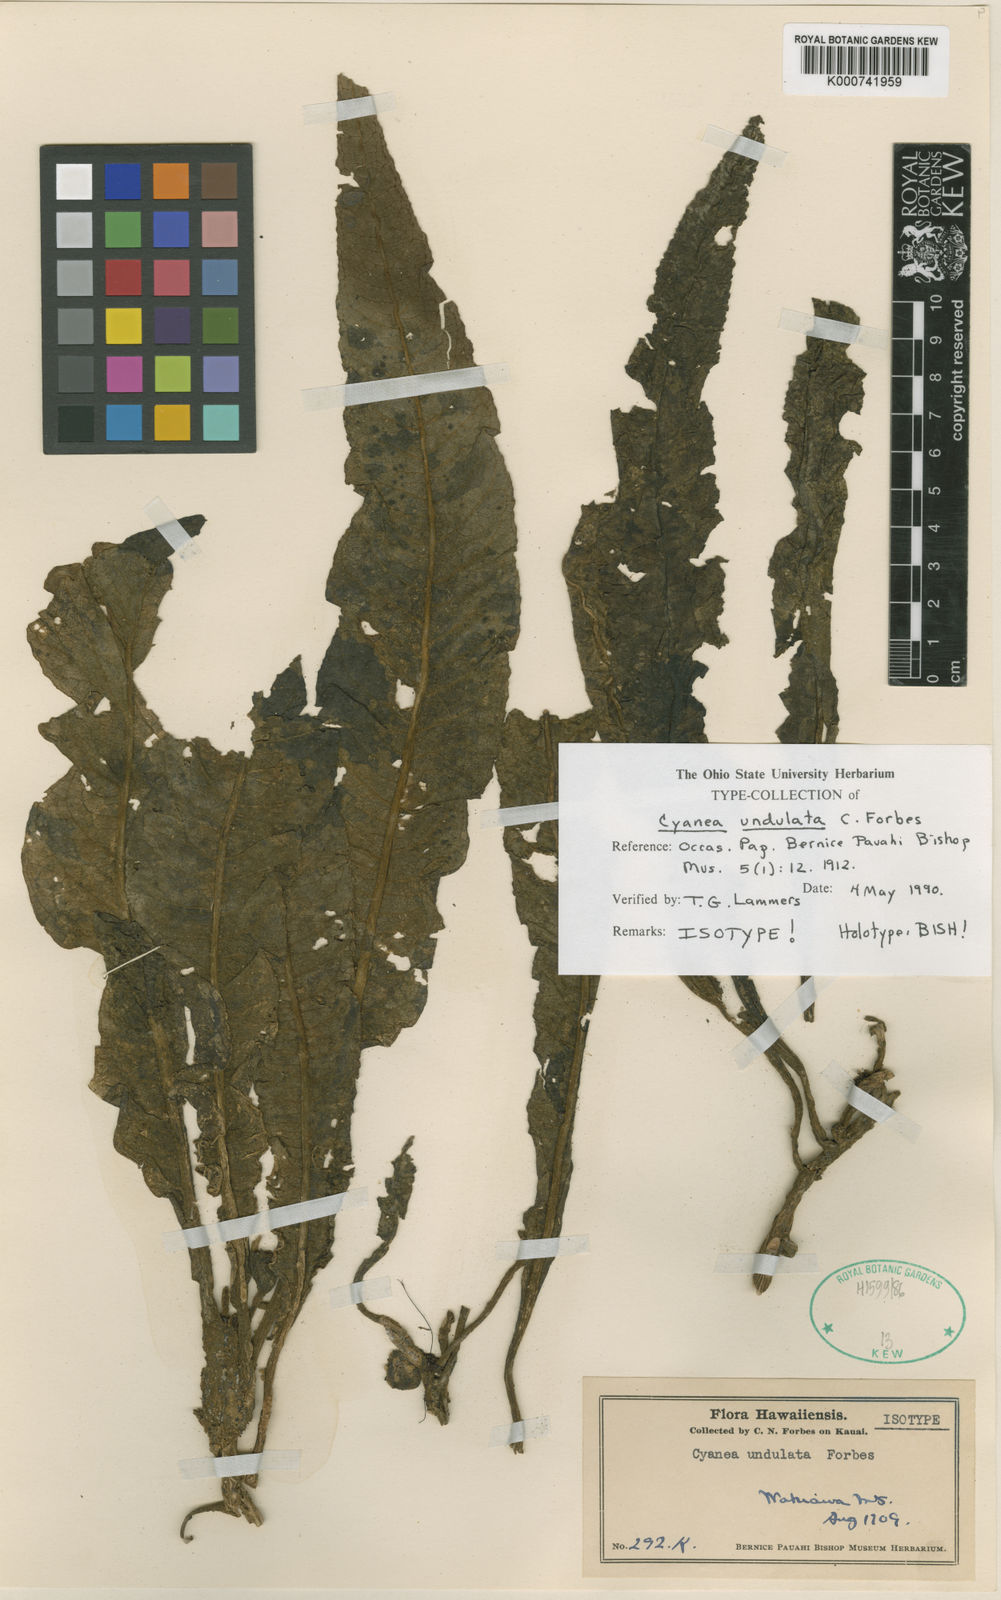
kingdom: Plantae
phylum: Tracheophyta
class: Magnoliopsida
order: Asterales
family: Campanulaceae
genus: Cyanea
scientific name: Cyanea undulata
